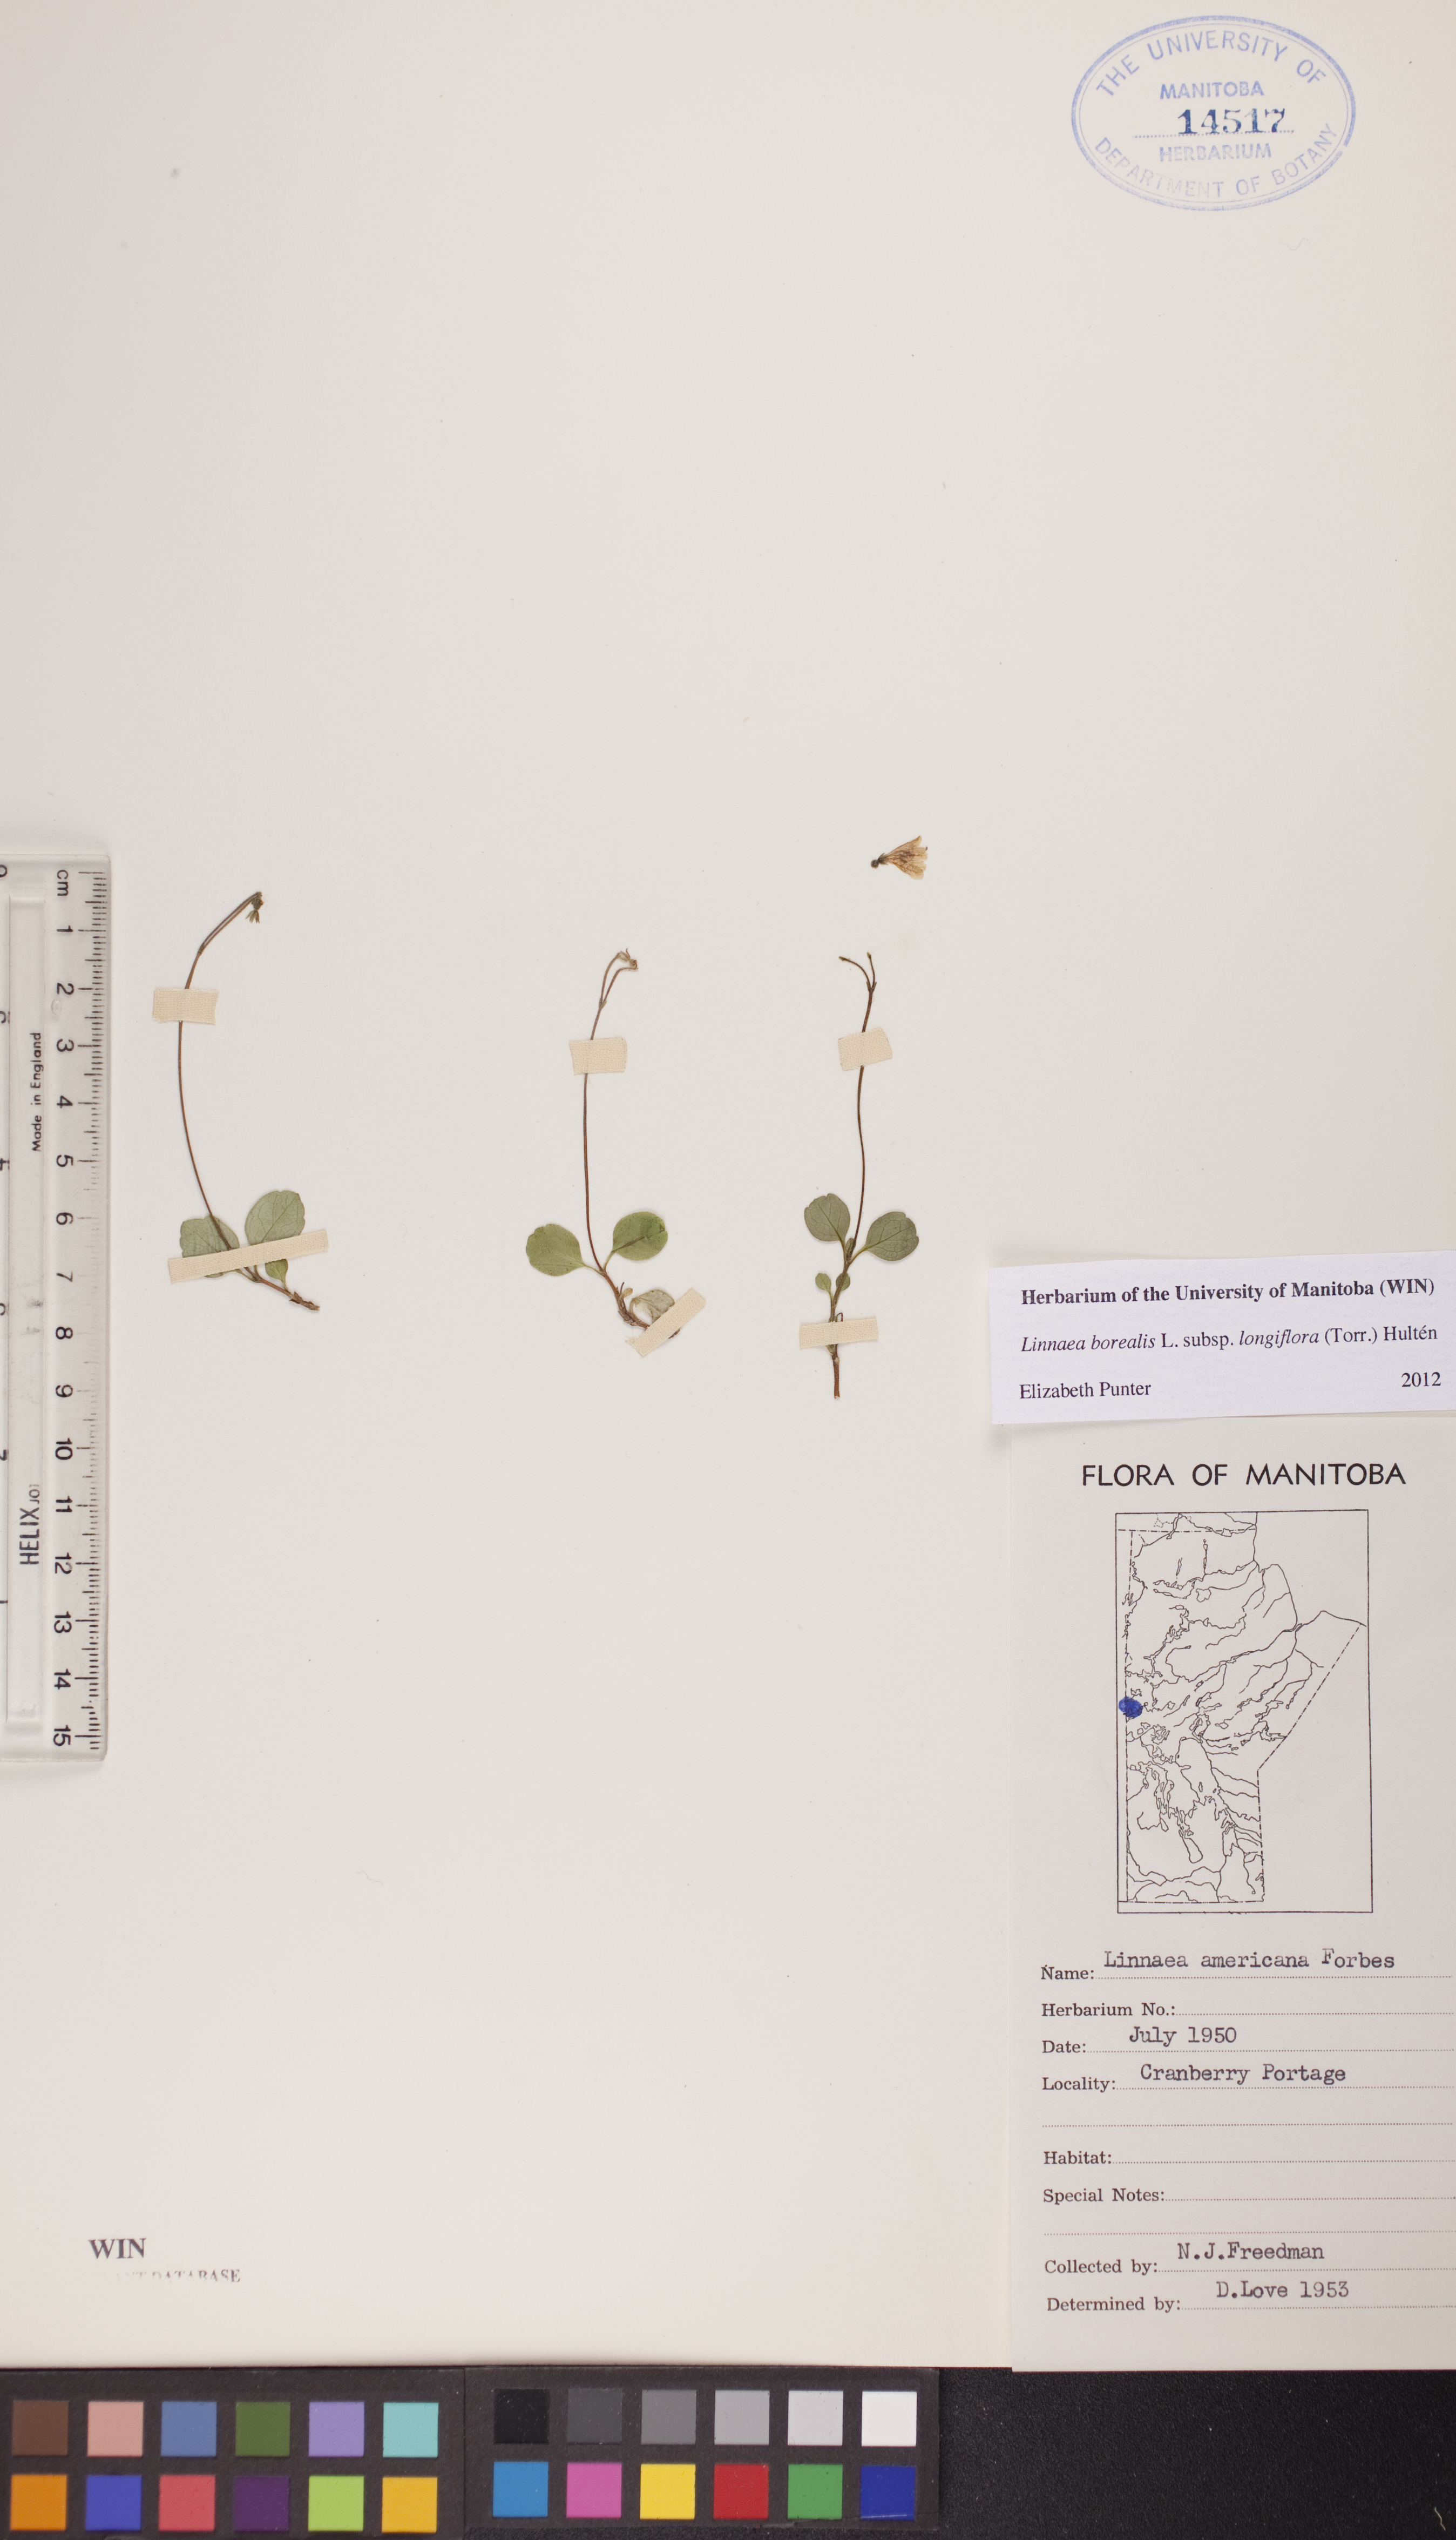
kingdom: Plantae
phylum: Tracheophyta
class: Magnoliopsida
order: Dipsacales
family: Caprifoliaceae
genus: Linnaea
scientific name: Linnaea borealis
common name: Twinflower
